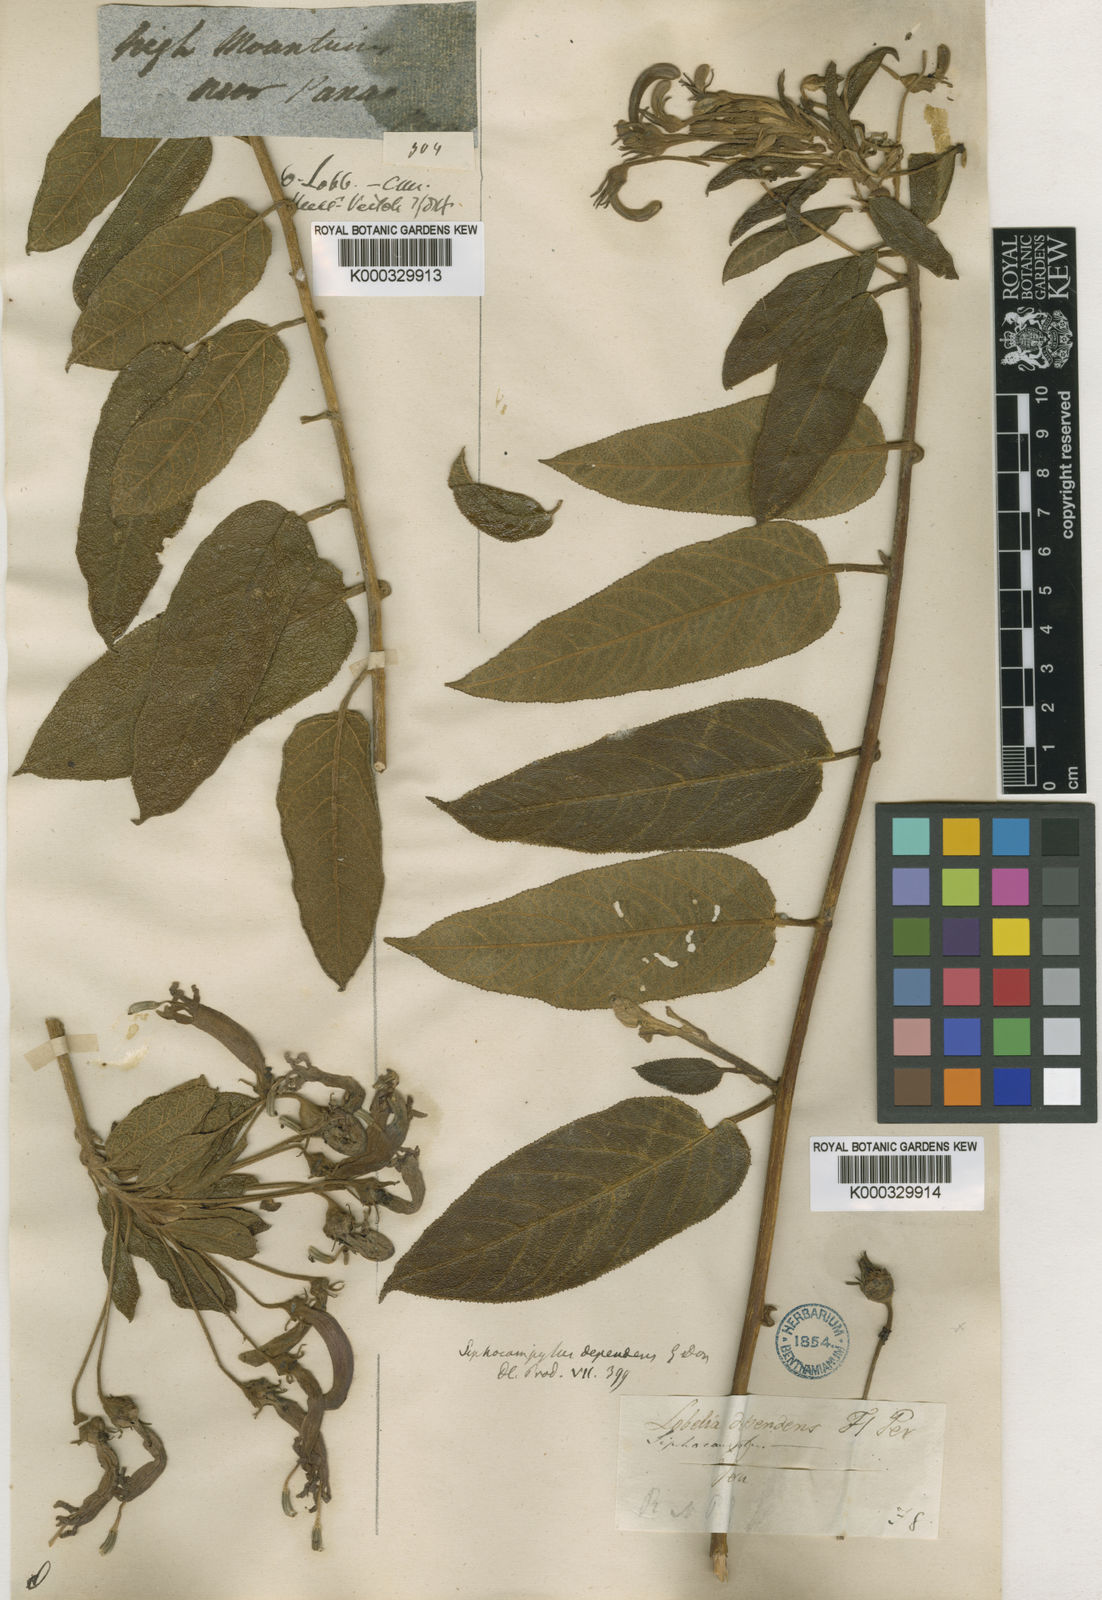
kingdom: Plantae
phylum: Tracheophyta
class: Magnoliopsida
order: Asterales
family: Campanulaceae
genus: Siphocampylus
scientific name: Siphocampylus dependens
